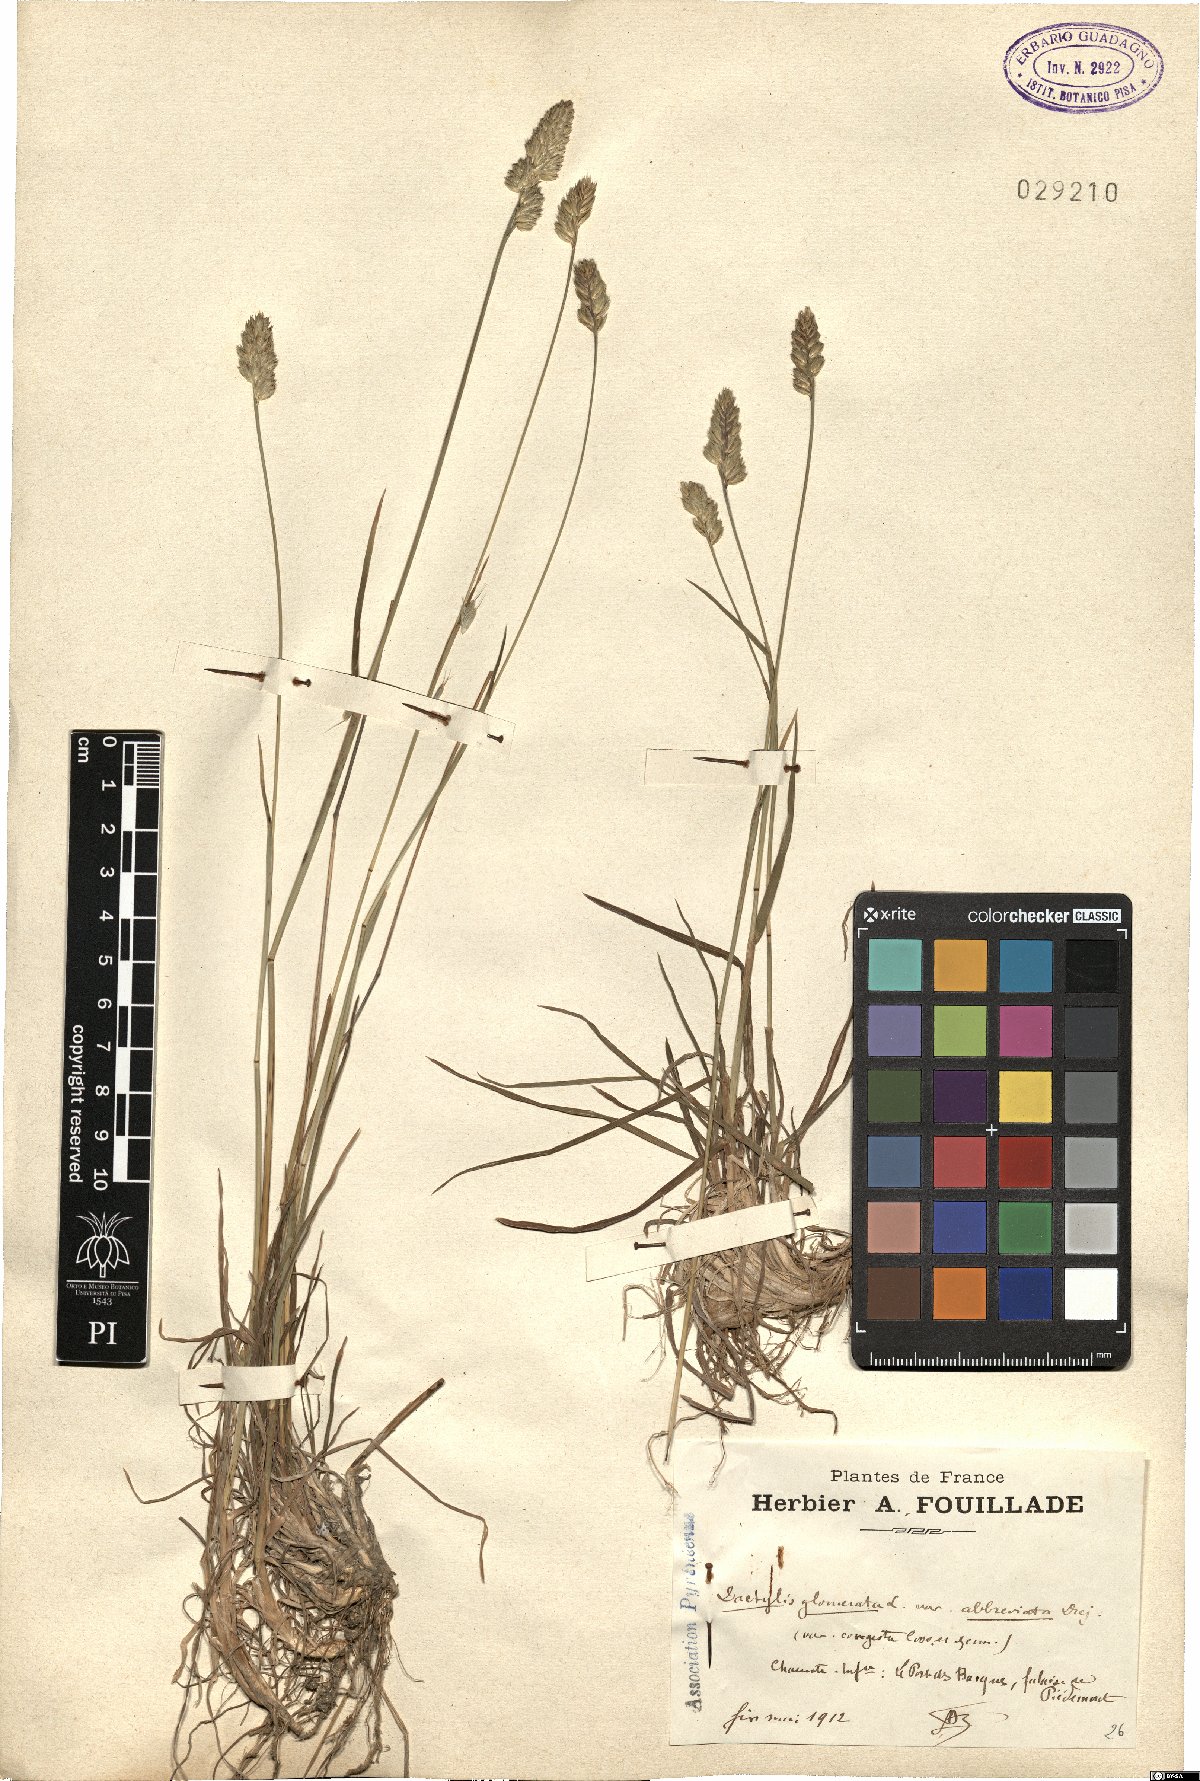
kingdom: Plantae
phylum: Tracheophyta
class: Liliopsida
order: Poales
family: Poaceae
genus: Dactylis
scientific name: Dactylis glomerata
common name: Orchardgrass
